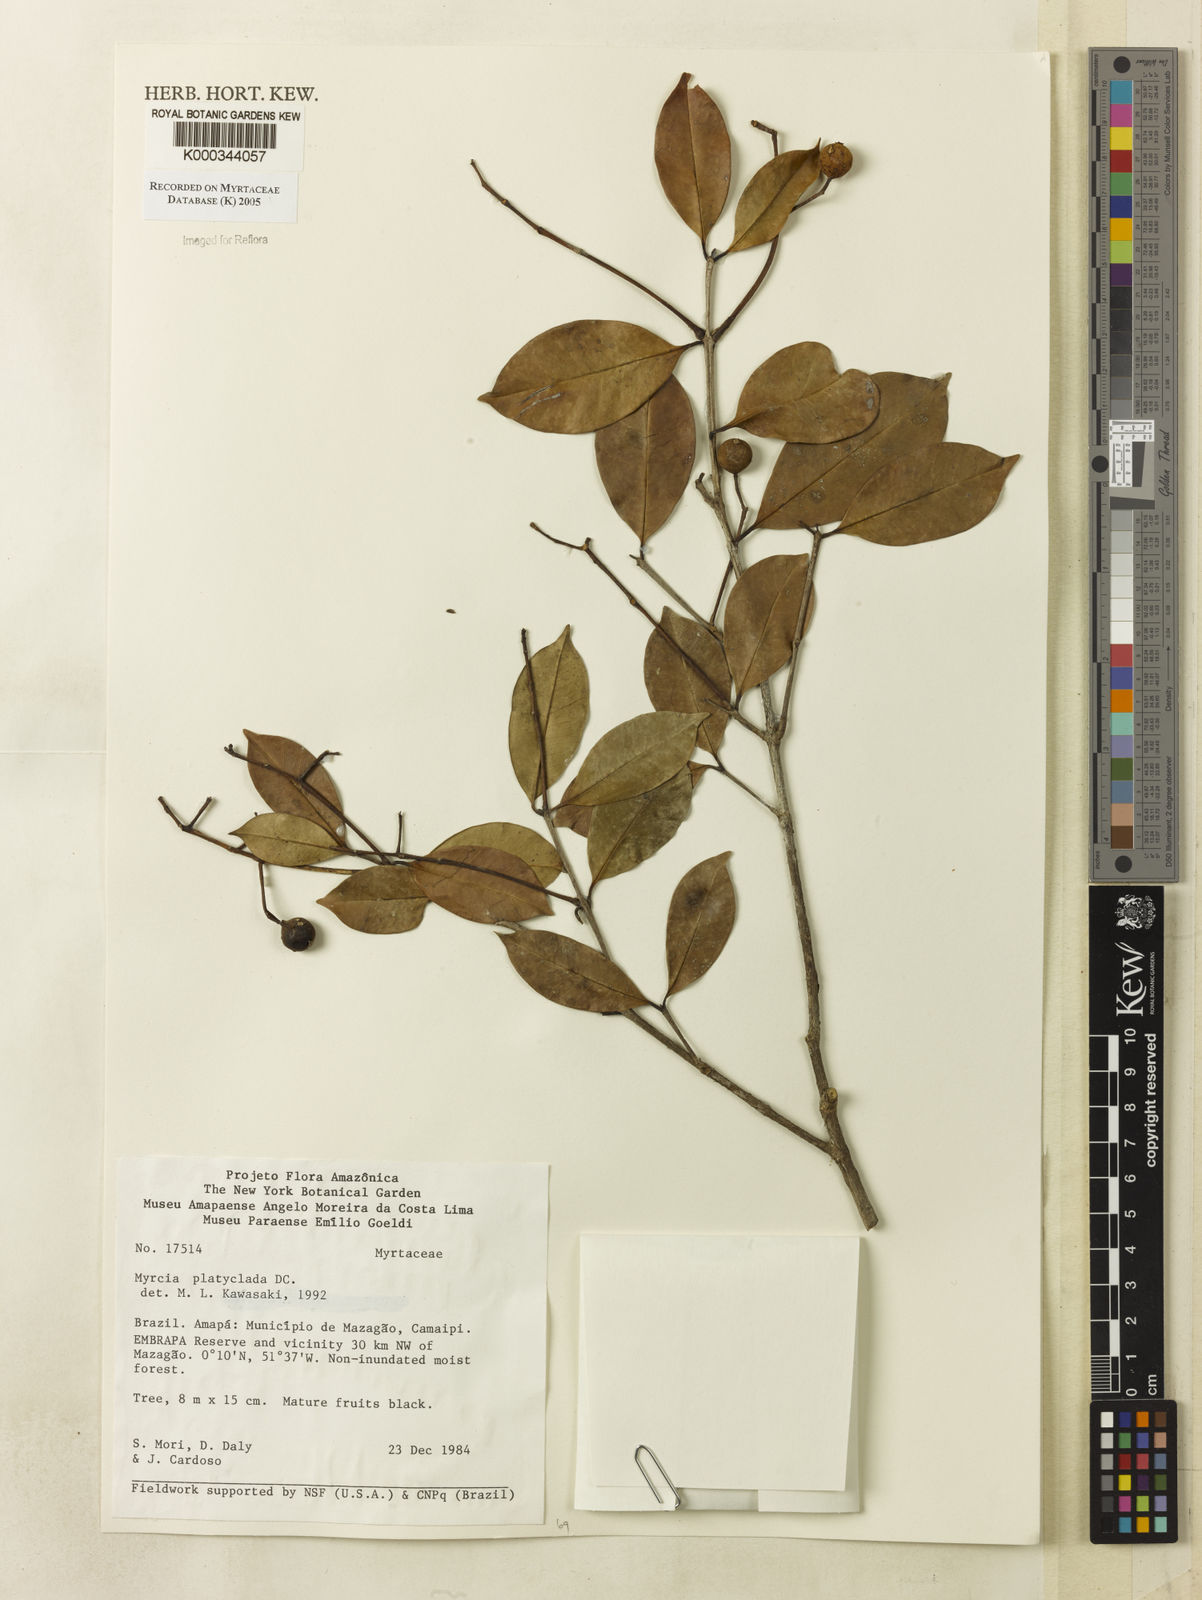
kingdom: Plantae
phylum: Tracheophyta
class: Magnoliopsida
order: Myrtales
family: Myrtaceae
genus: Myrcia
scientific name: Myrcia platyclada
